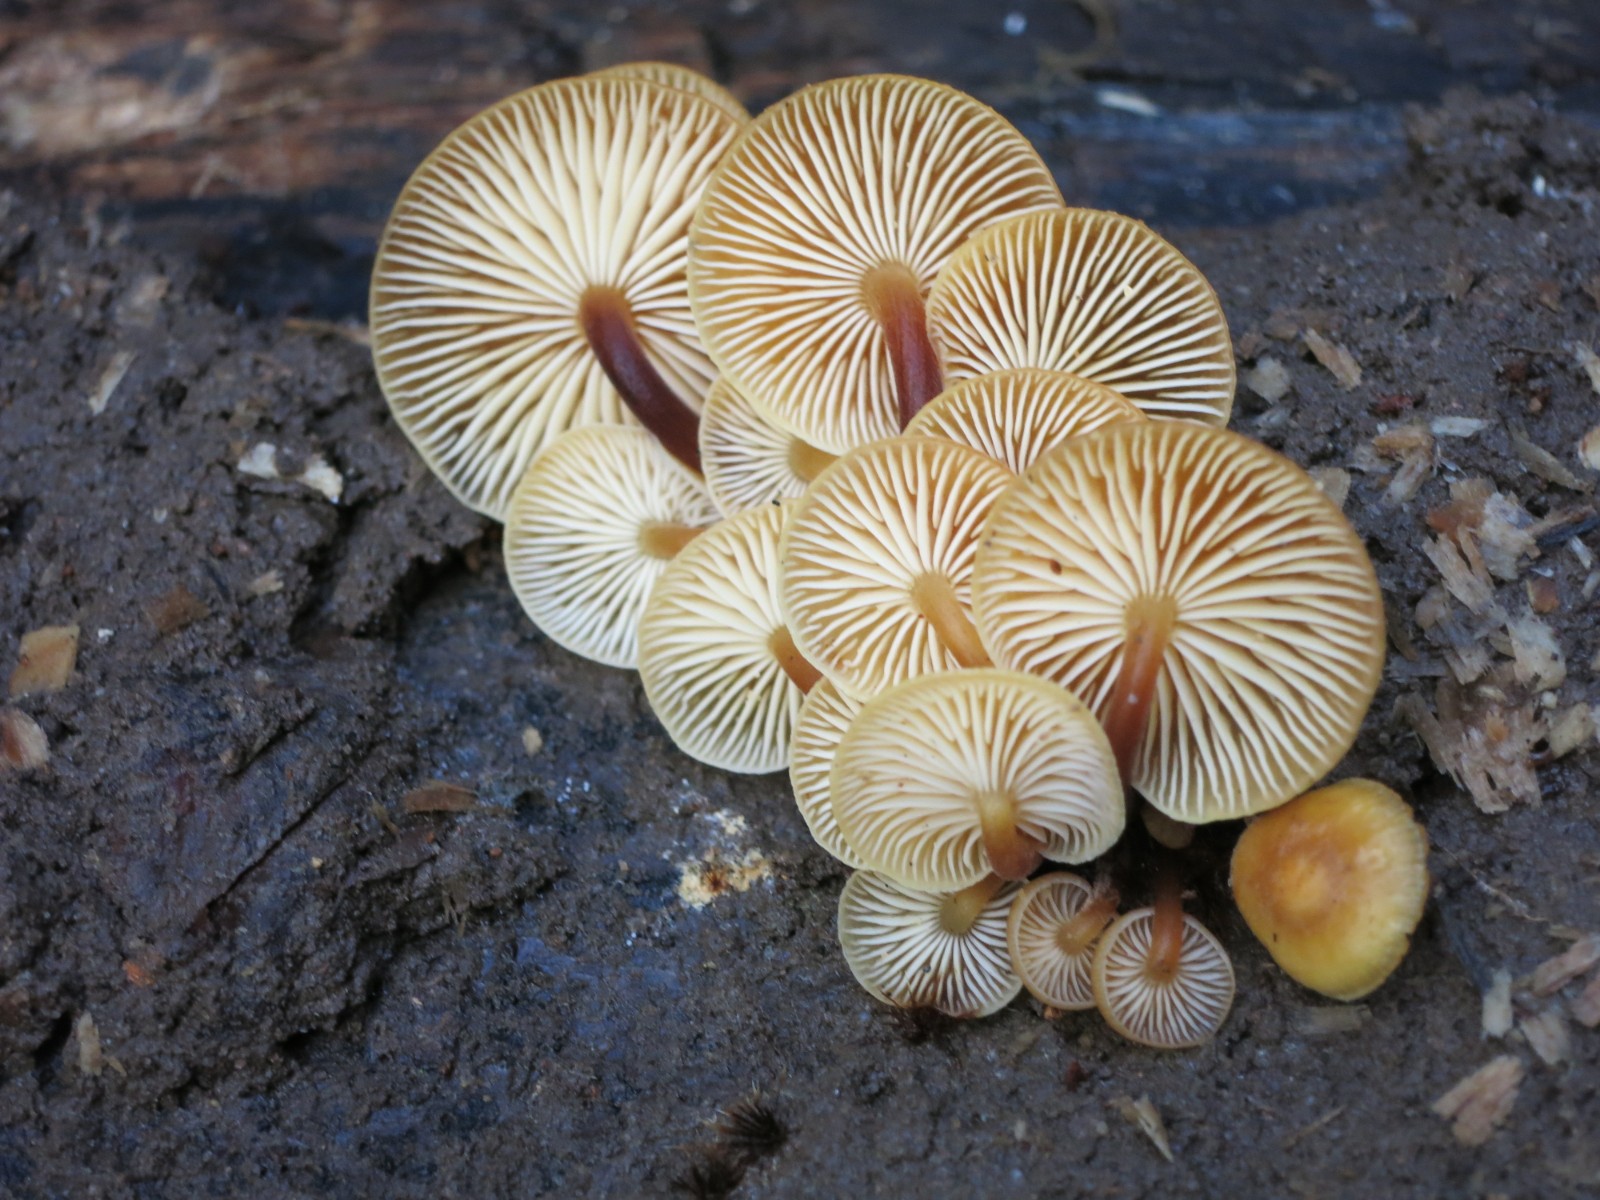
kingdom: Fungi
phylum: Basidiomycota
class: Agaricomycetes
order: Agaricales
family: Physalacriaceae
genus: Flammulina
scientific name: Flammulina velutipes
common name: gul fløjlsfod
